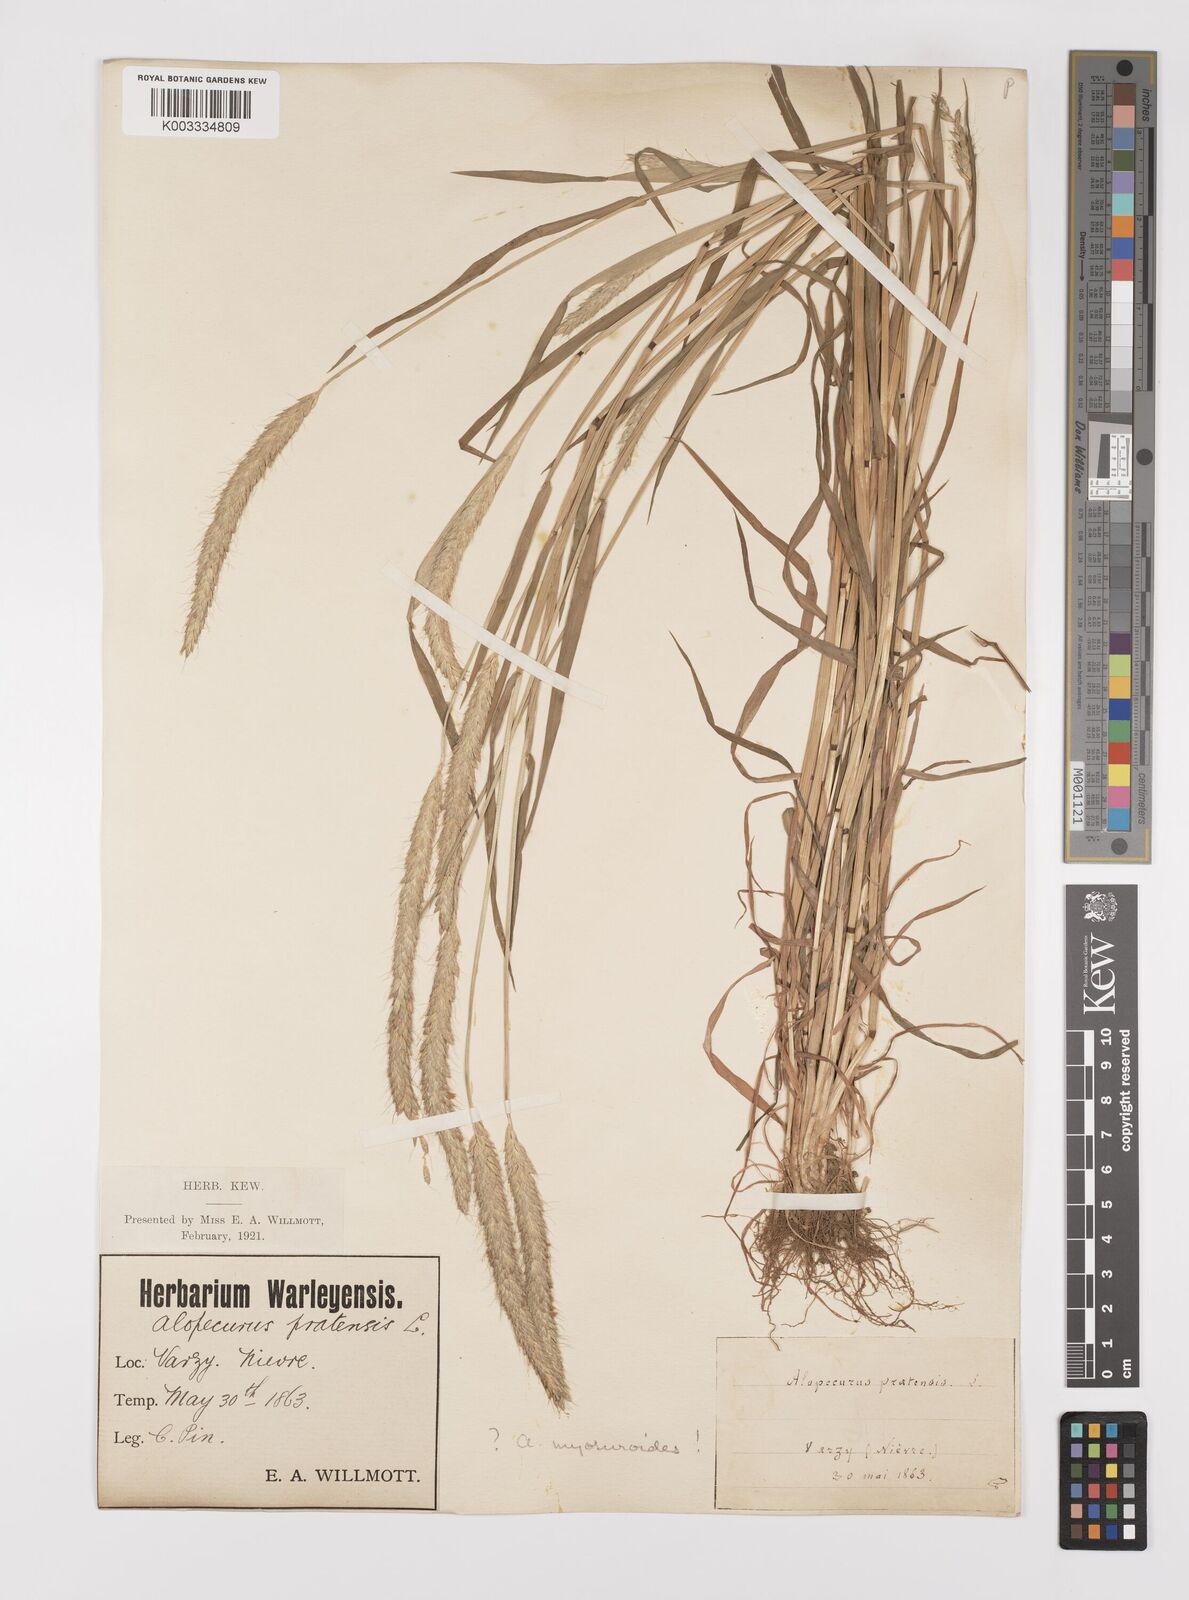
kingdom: Plantae
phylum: Tracheophyta
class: Liliopsida
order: Poales
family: Poaceae
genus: Alopecurus
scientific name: Alopecurus myosuroides
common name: Black-grass
